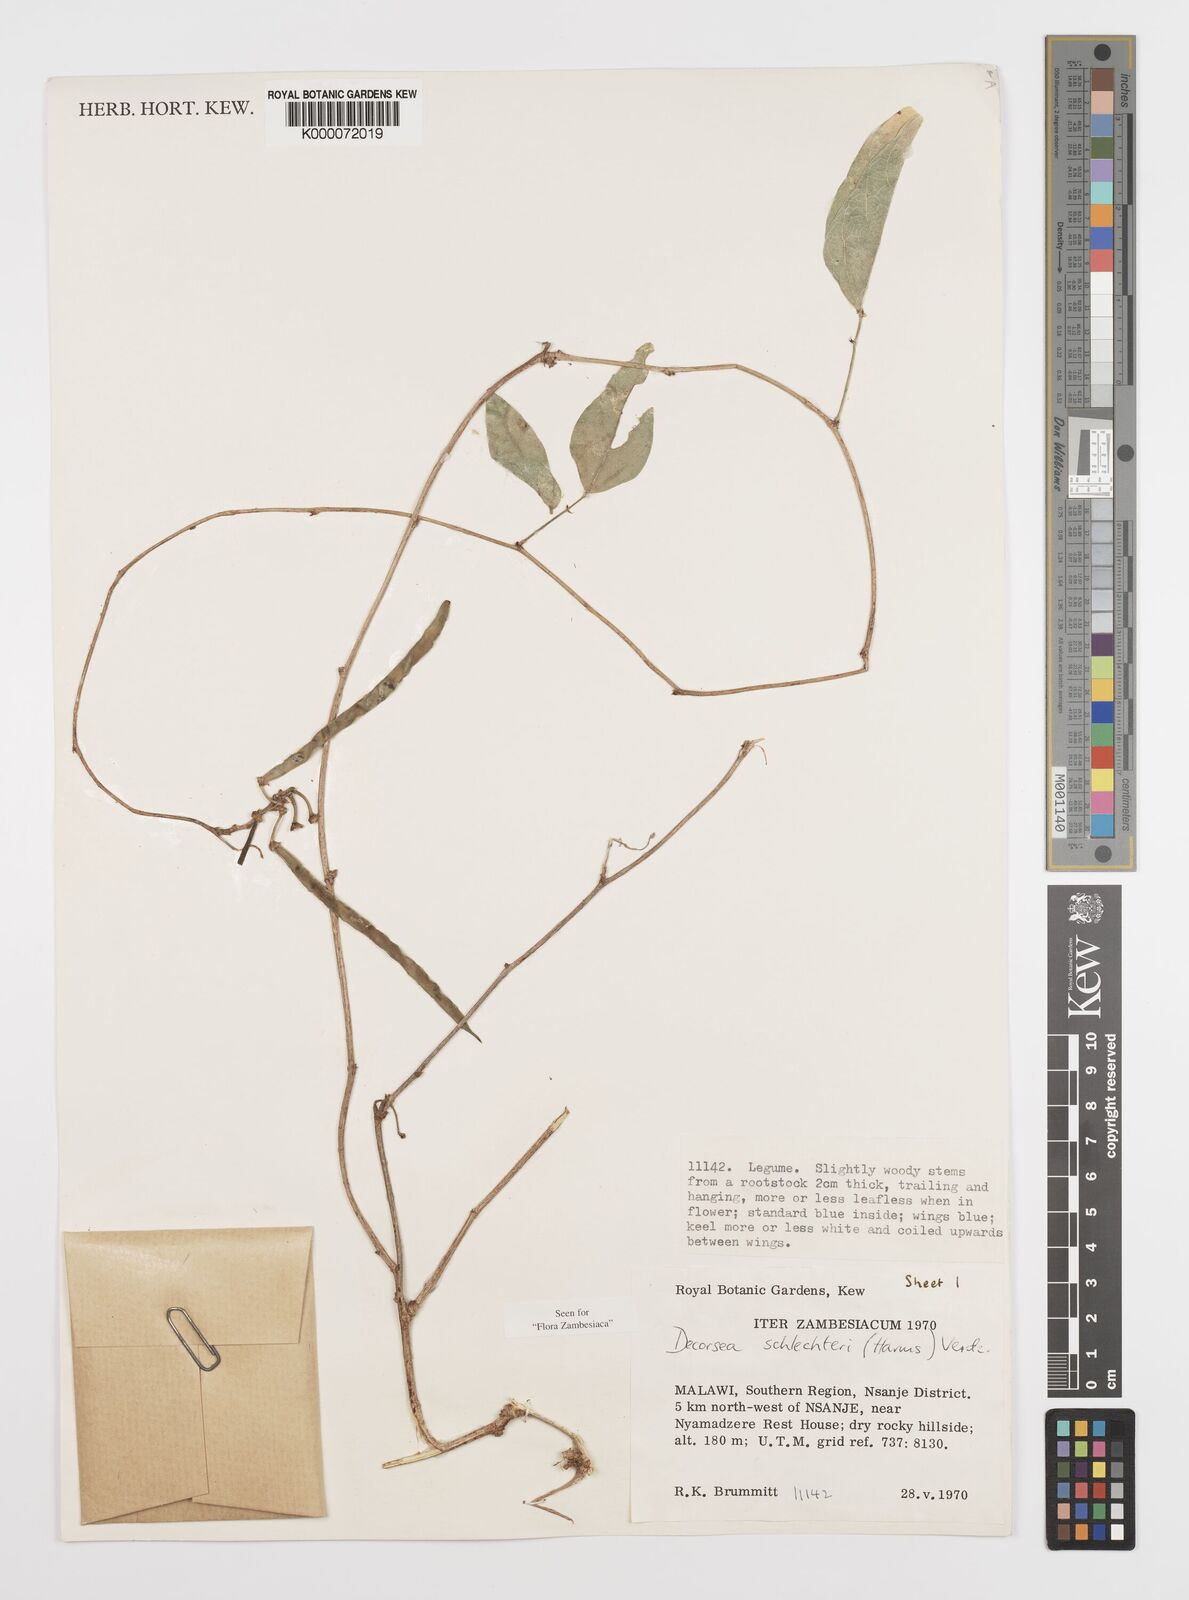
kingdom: Plantae
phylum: Tracheophyta
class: Magnoliopsida
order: Fabales
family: Fabaceae
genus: Decorsea
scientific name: Decorsea schlechteri
